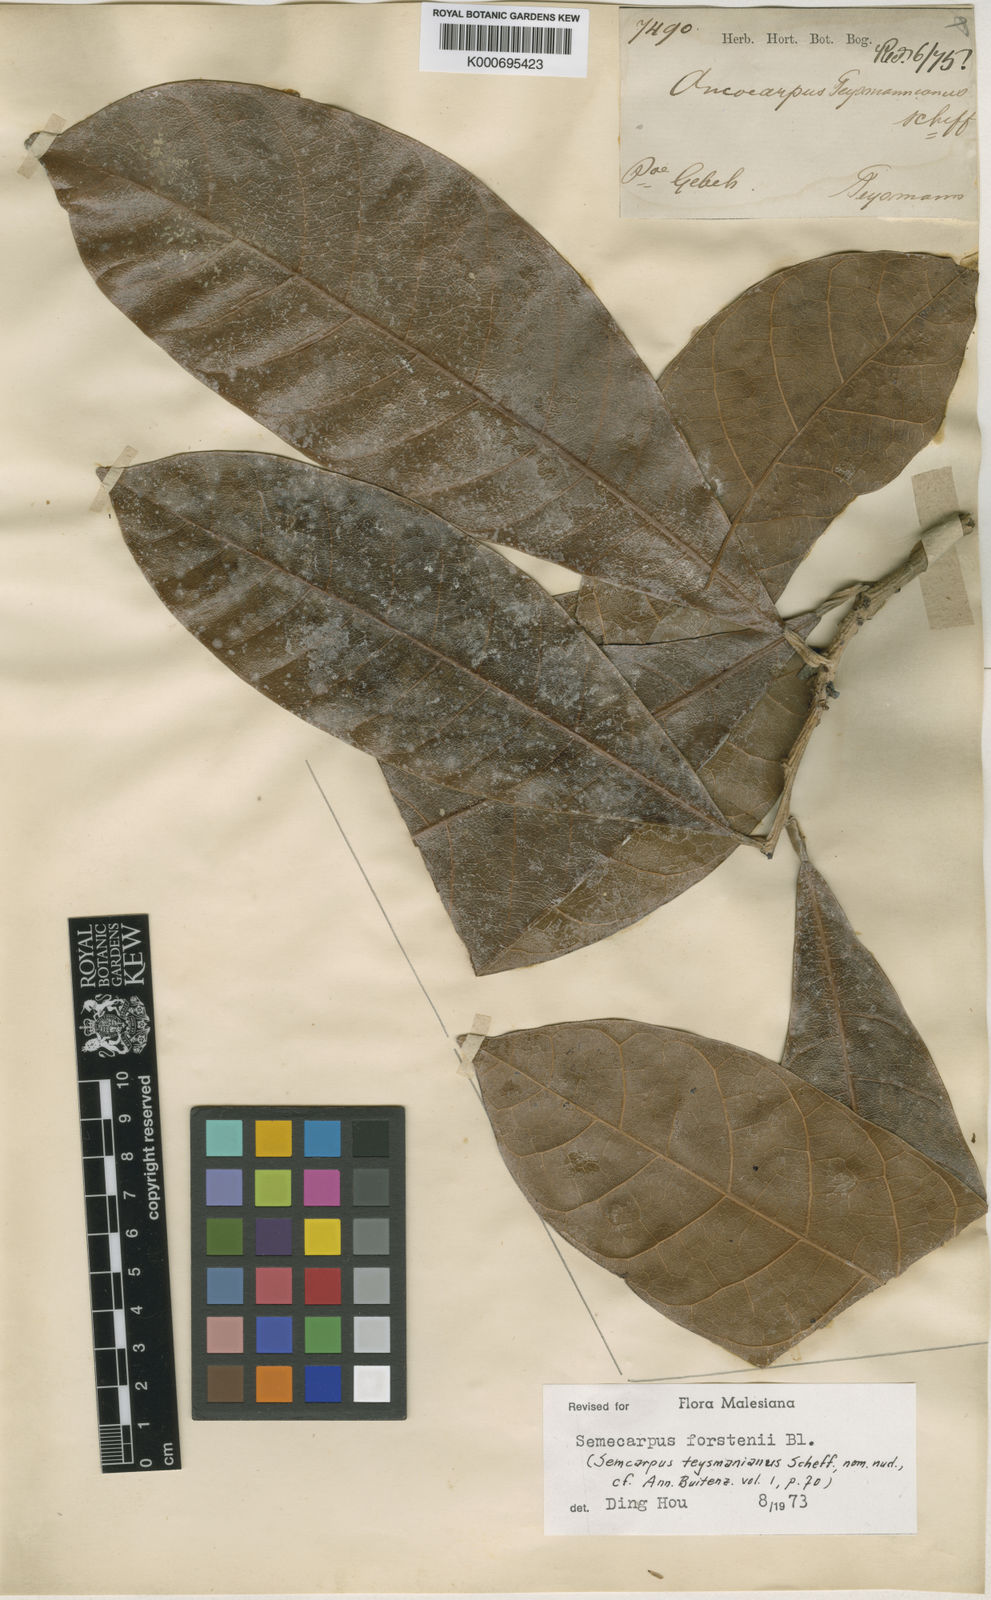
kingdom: Plantae
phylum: Tracheophyta
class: Magnoliopsida
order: Sapindales
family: Anacardiaceae
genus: Semecarpus
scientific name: Semecarpus forstenii
